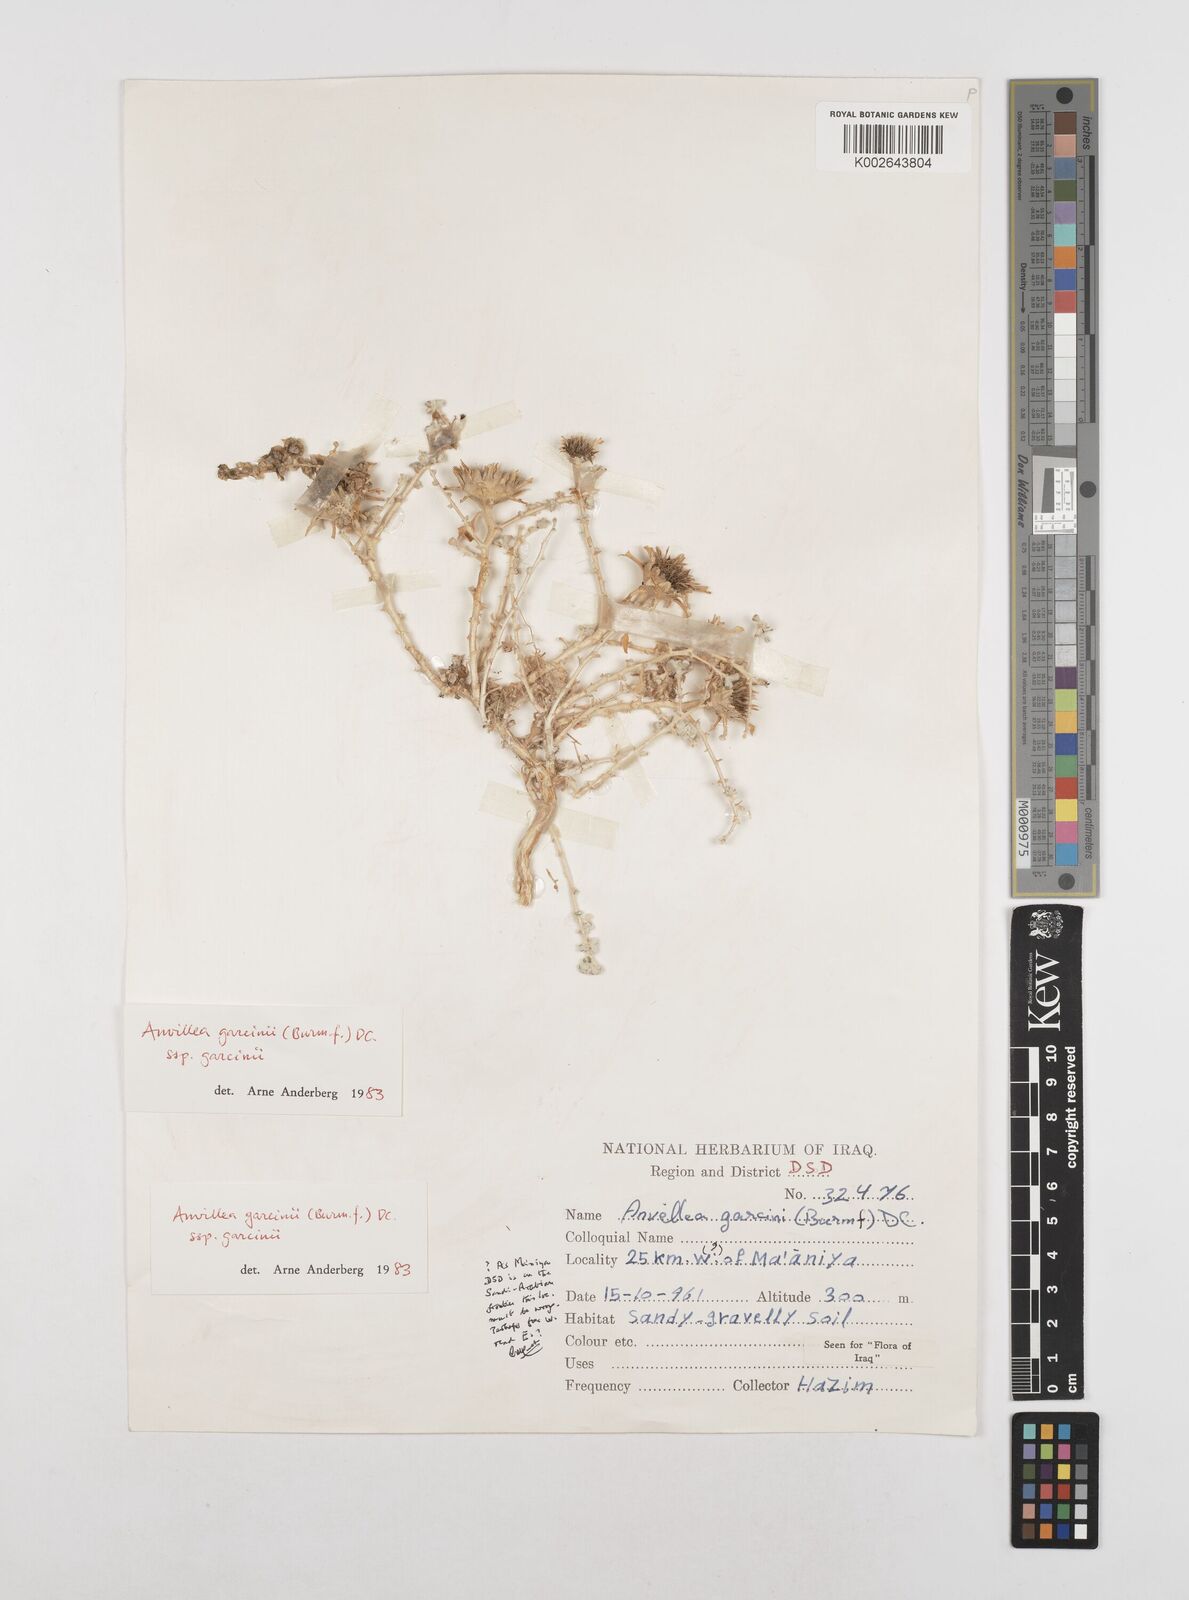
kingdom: Plantae
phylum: Tracheophyta
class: Magnoliopsida
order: Asterales
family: Asteraceae
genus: Anvillea
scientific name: Anvillea garcinii
